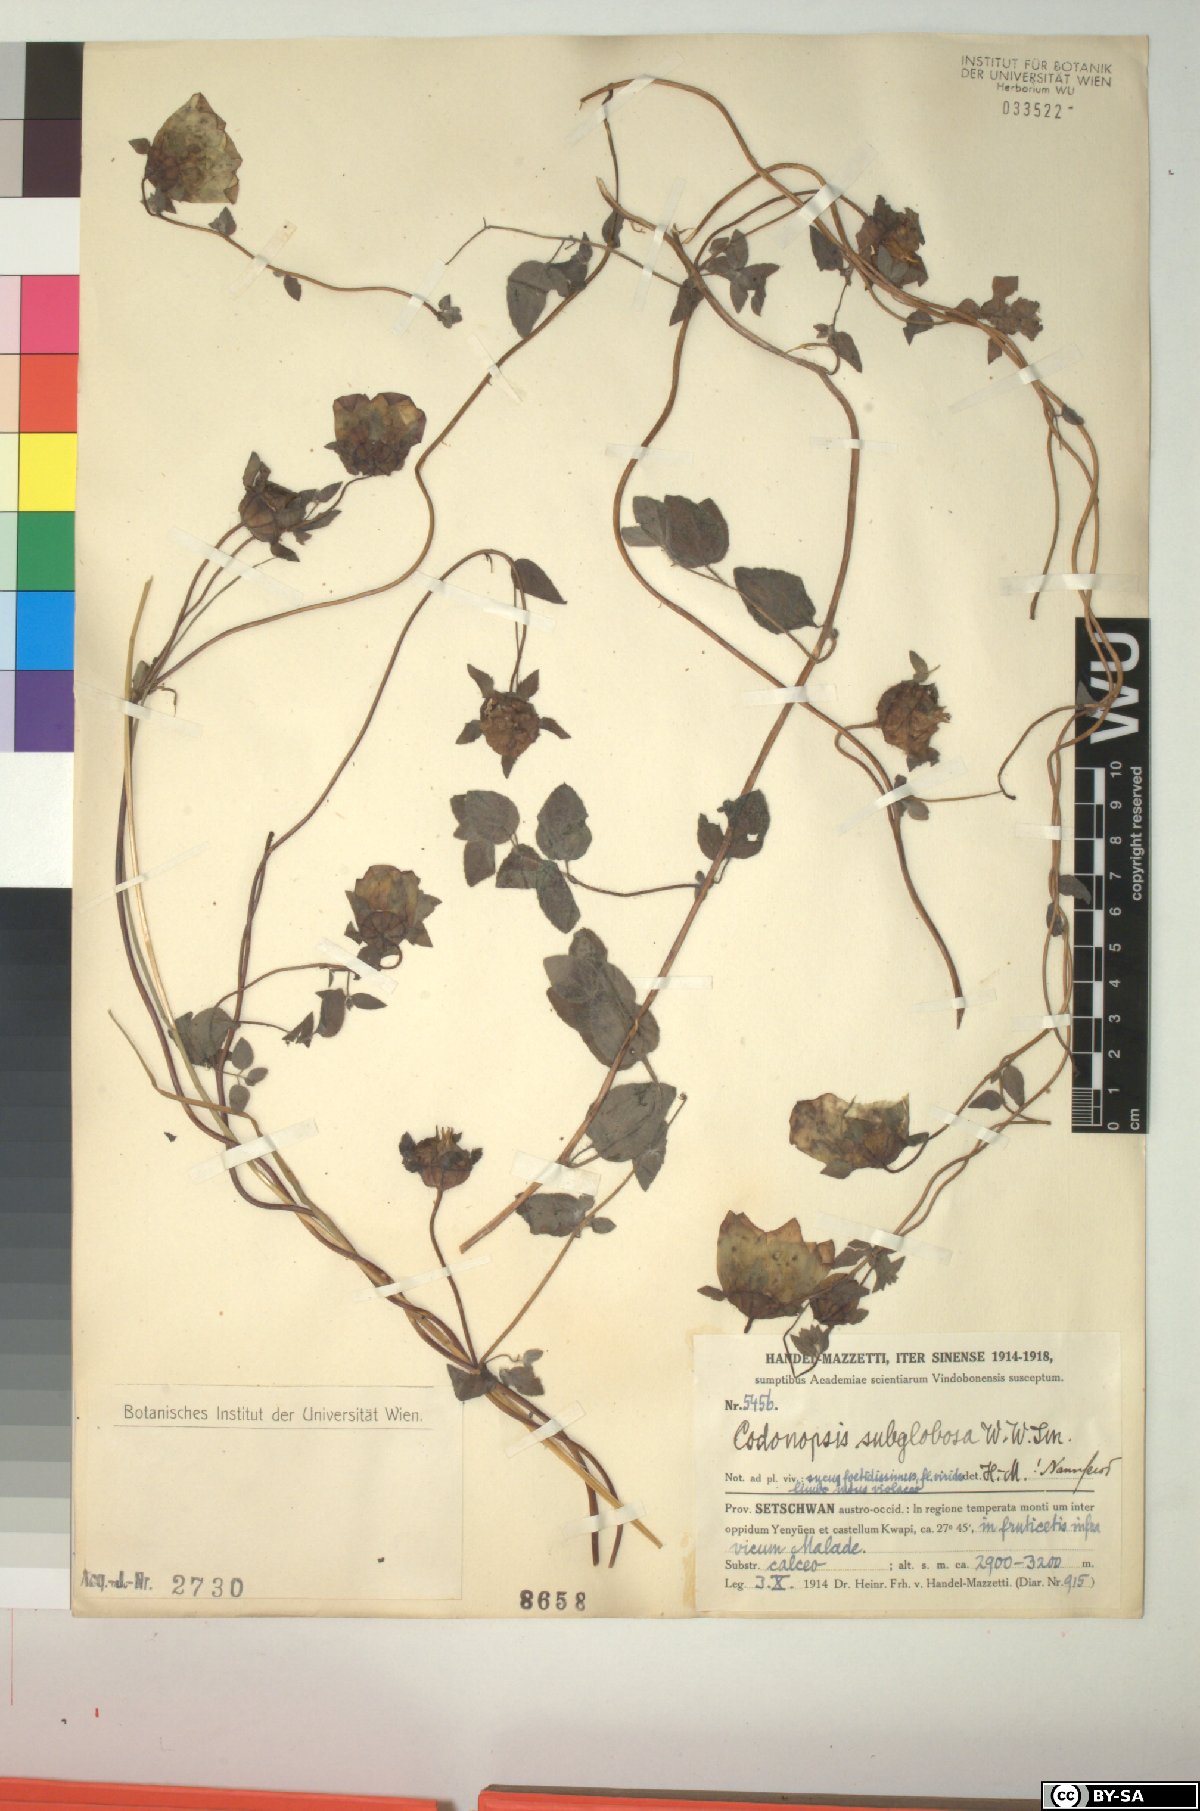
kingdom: Plantae
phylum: Tracheophyta
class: Magnoliopsida
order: Asterales
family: Campanulaceae
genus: Codonopsis
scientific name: Codonopsis subglobosa
